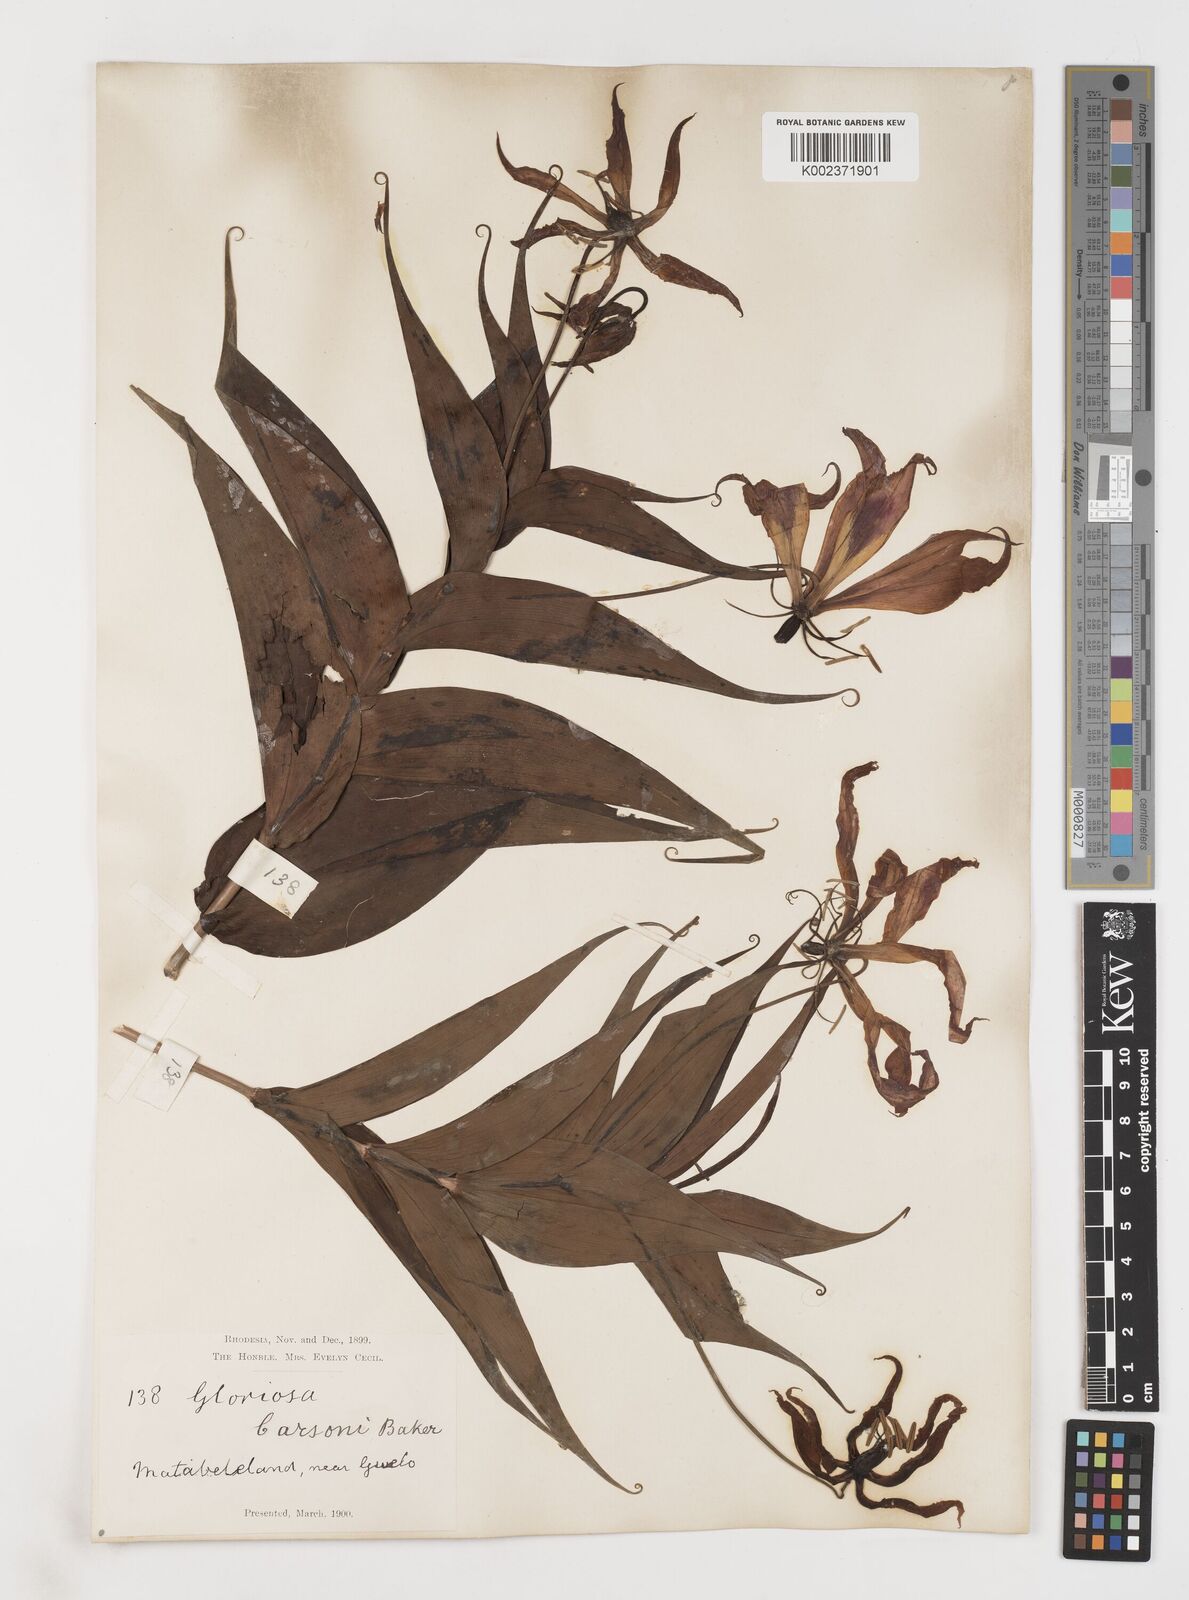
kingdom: Plantae
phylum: Tracheophyta
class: Liliopsida
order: Liliales
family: Colchicaceae
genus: Gloriosa
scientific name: Gloriosa simplex
